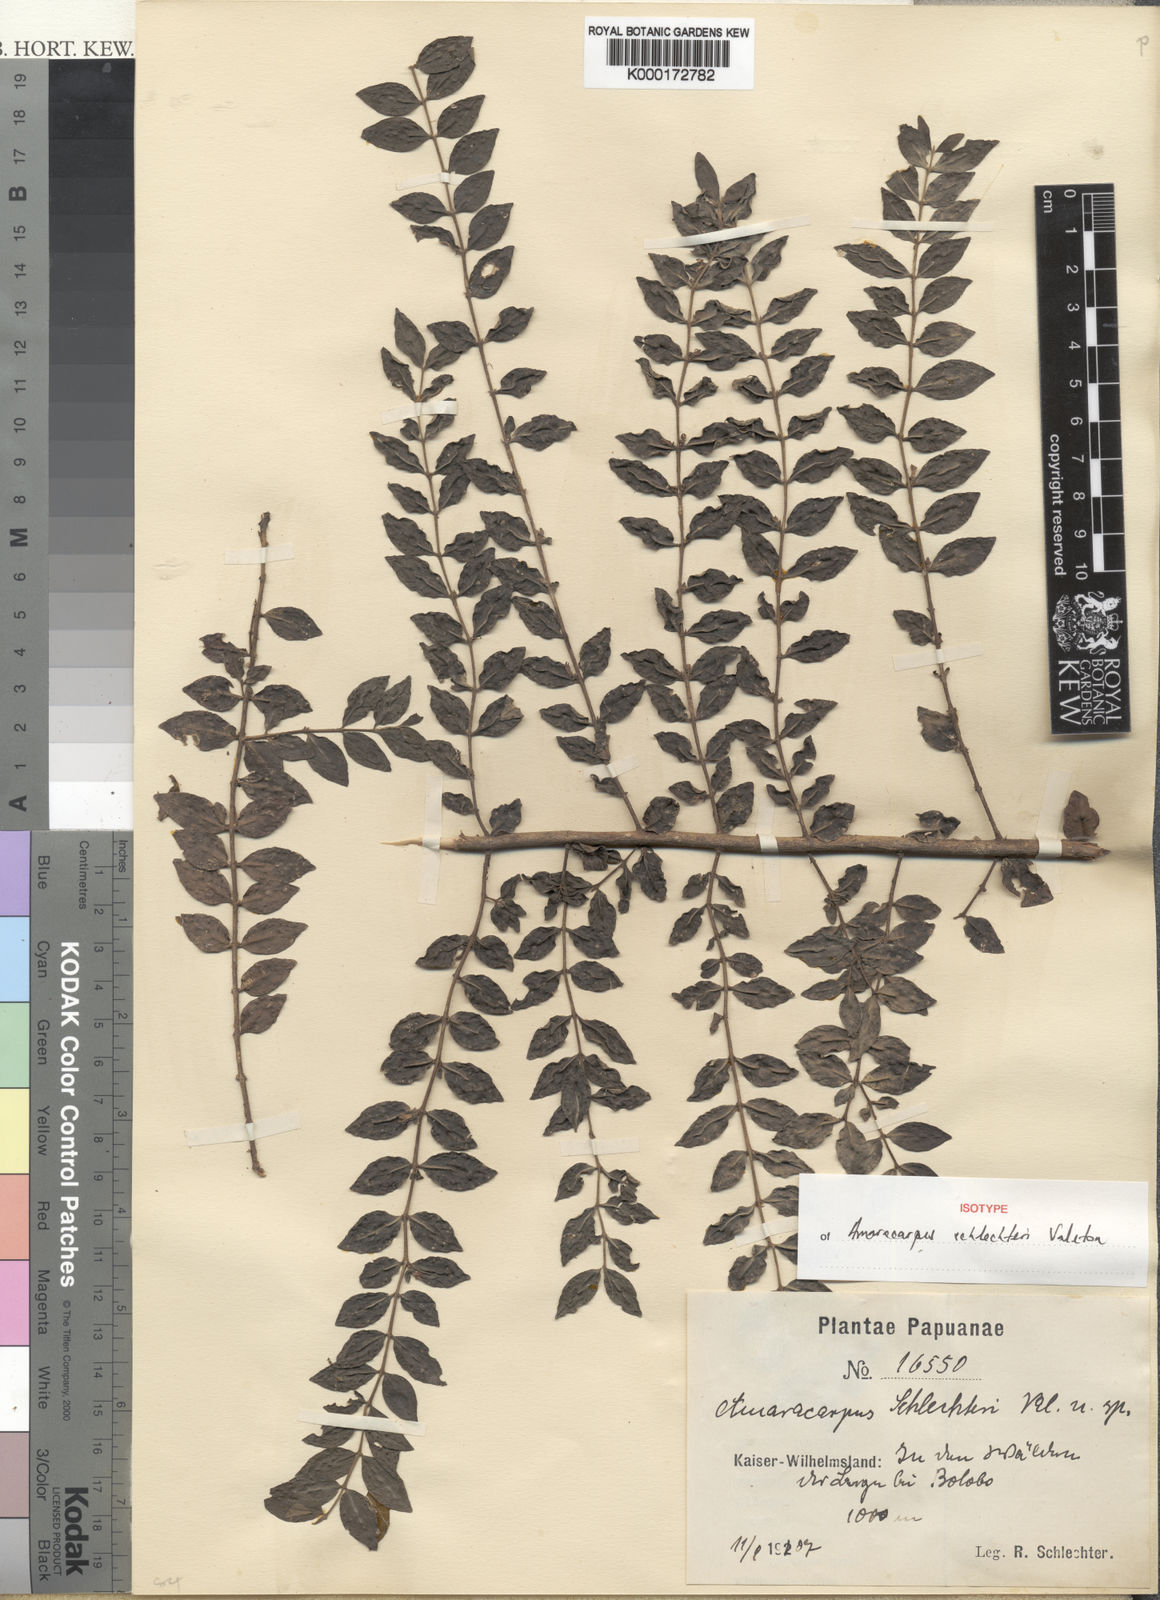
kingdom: Plantae
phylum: Tracheophyta
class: Magnoliopsida
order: Gentianales
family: Rubiaceae
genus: Amaracarpus
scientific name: Amaracarpus schlechteri
